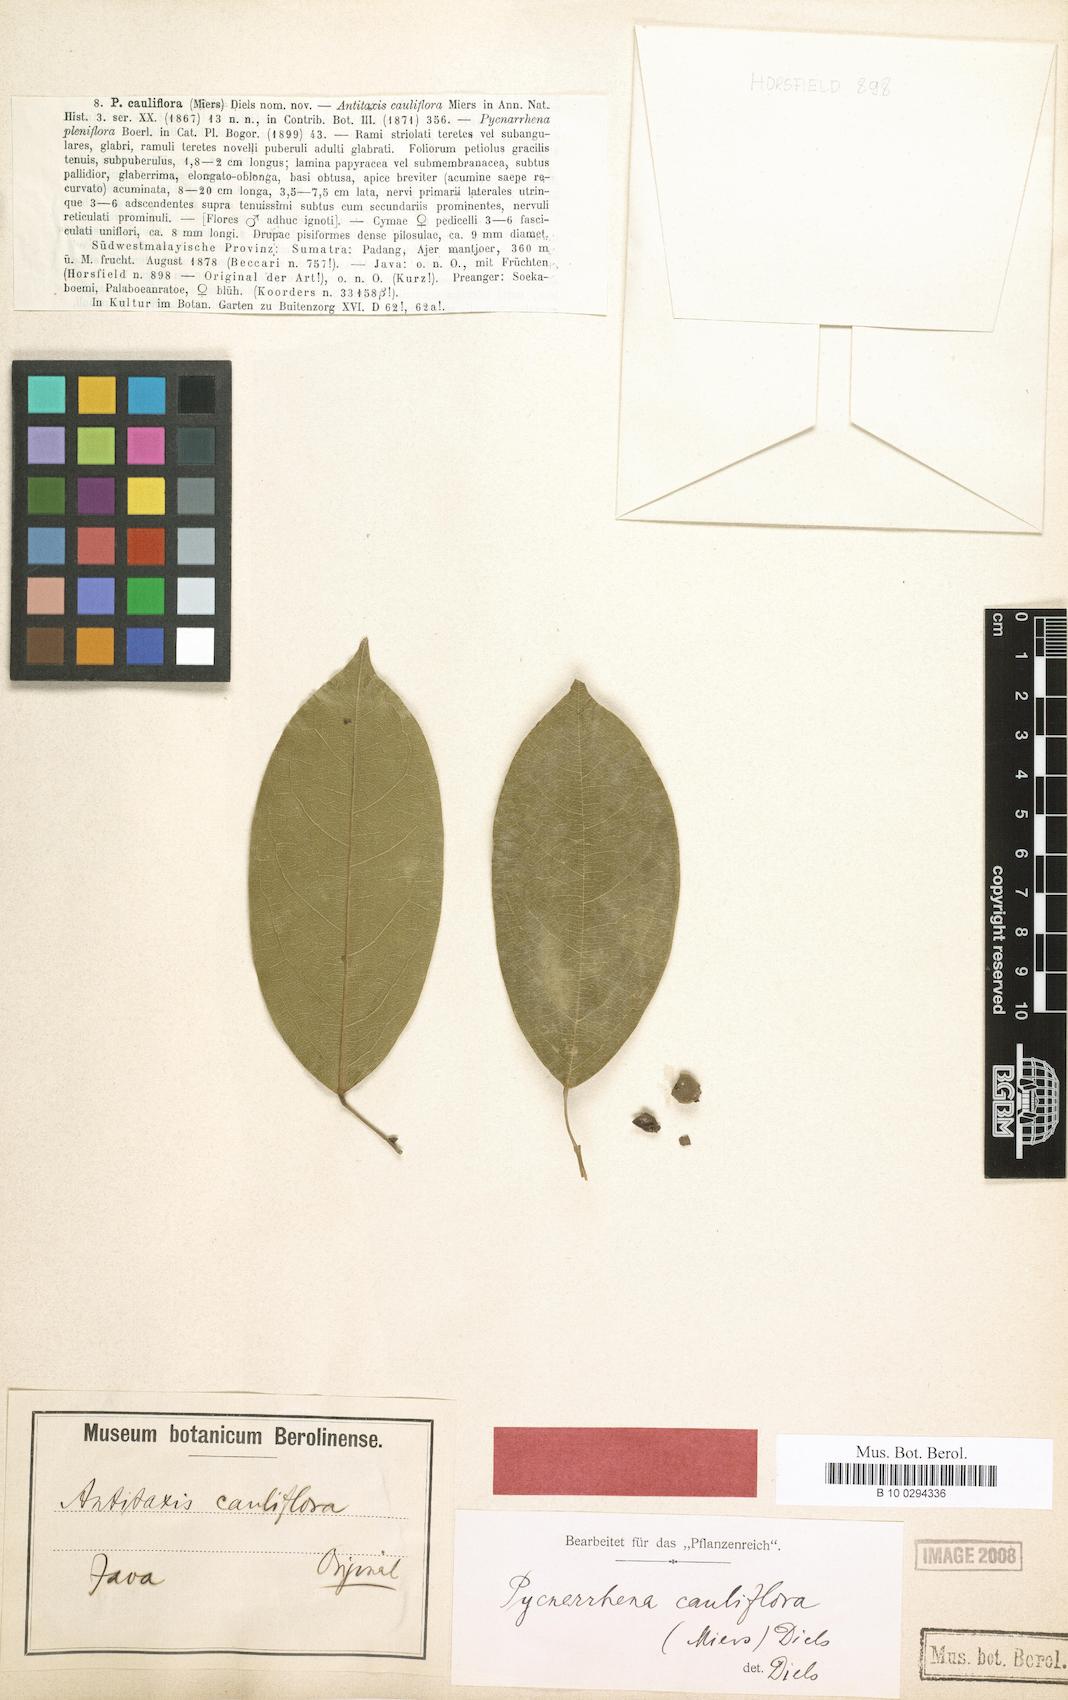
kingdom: Plantae
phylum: Tracheophyta
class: Magnoliopsida
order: Ranunculales
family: Menispermaceae
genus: Pycnarrhena
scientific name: Pycnarrhena longifolia
